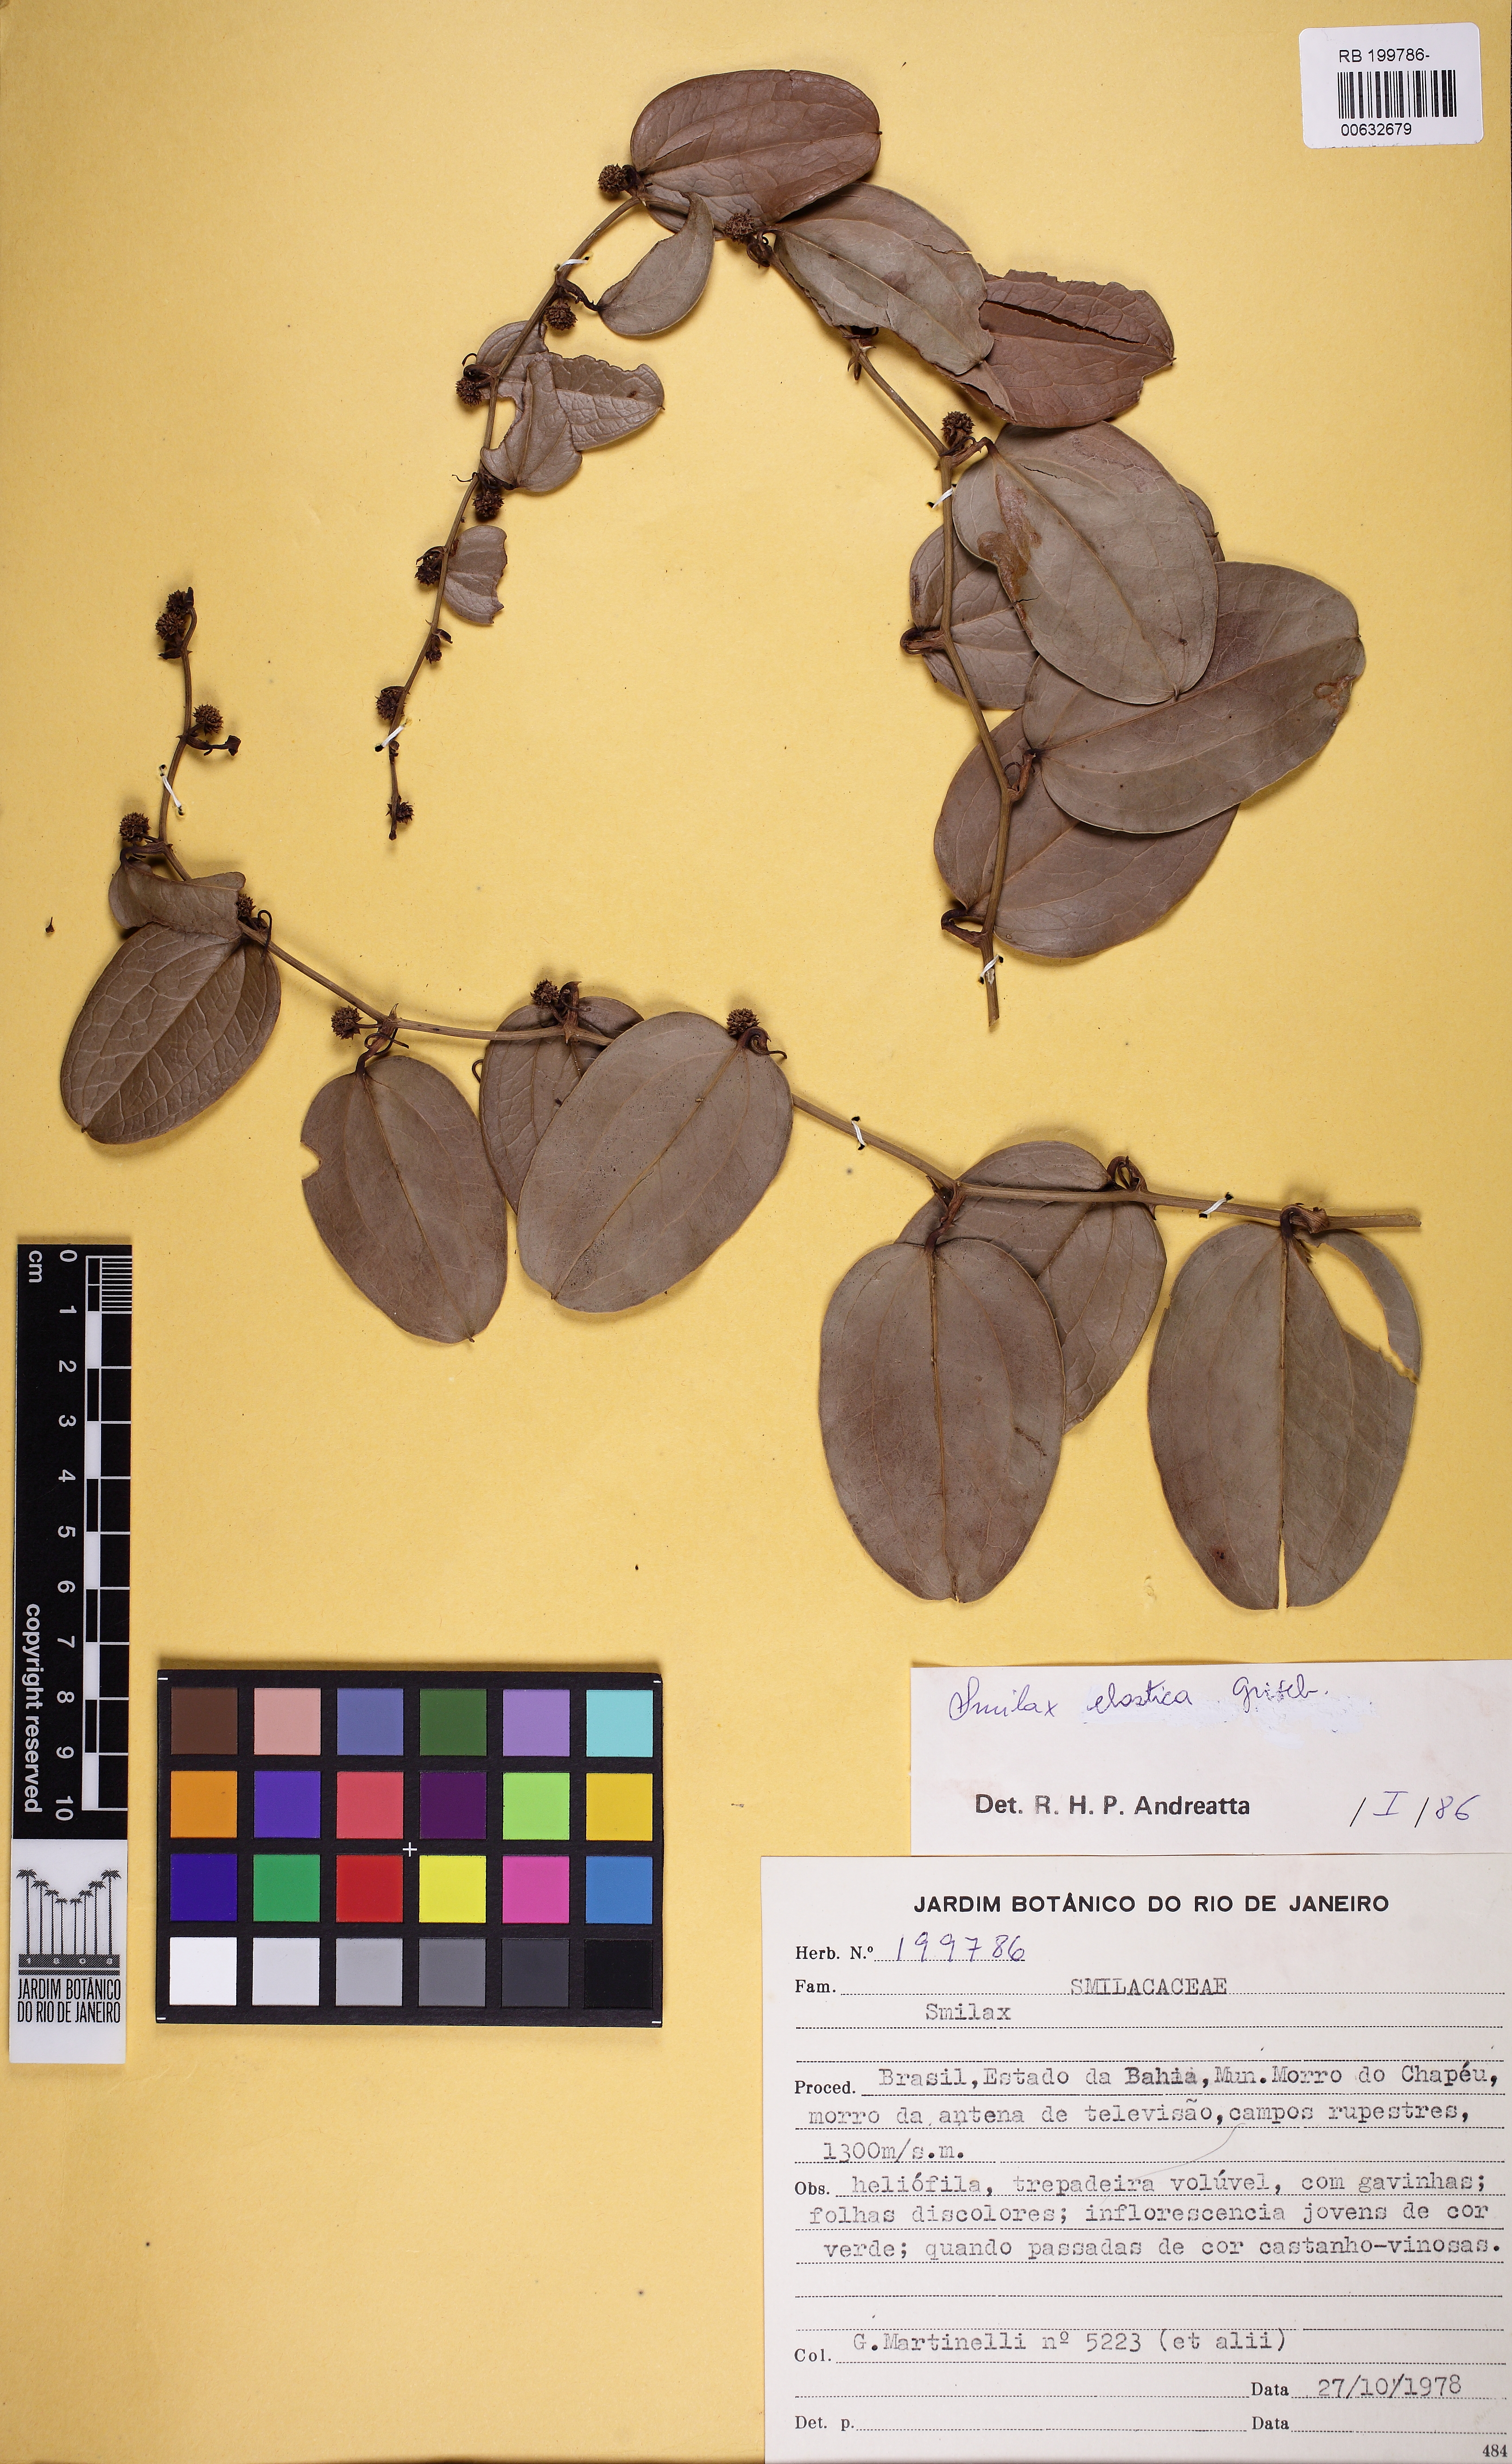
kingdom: Plantae
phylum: Tracheophyta
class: Liliopsida
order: Liliales
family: Smilacaceae
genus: Smilax
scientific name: Smilax elastica
